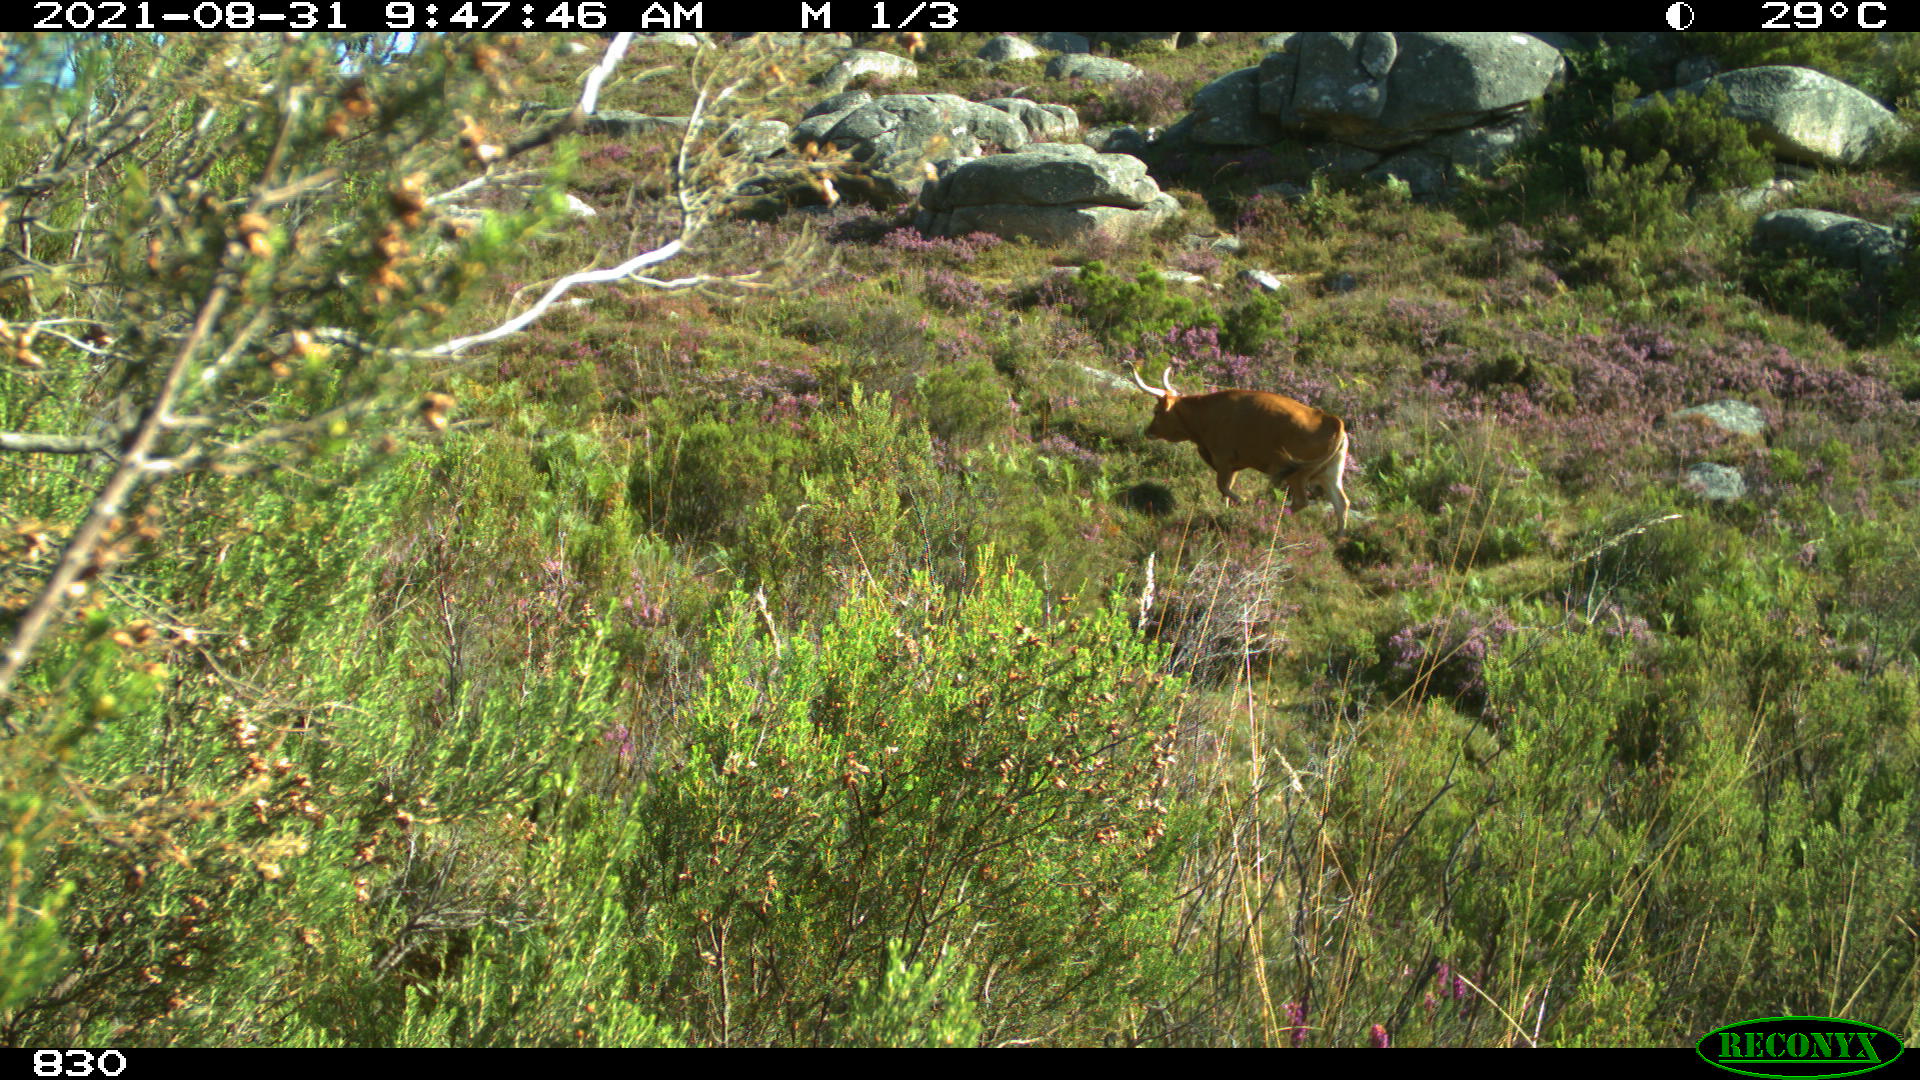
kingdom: Animalia
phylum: Chordata
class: Mammalia
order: Artiodactyla
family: Bovidae
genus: Bos
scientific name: Bos taurus
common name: Domesticated cattle
